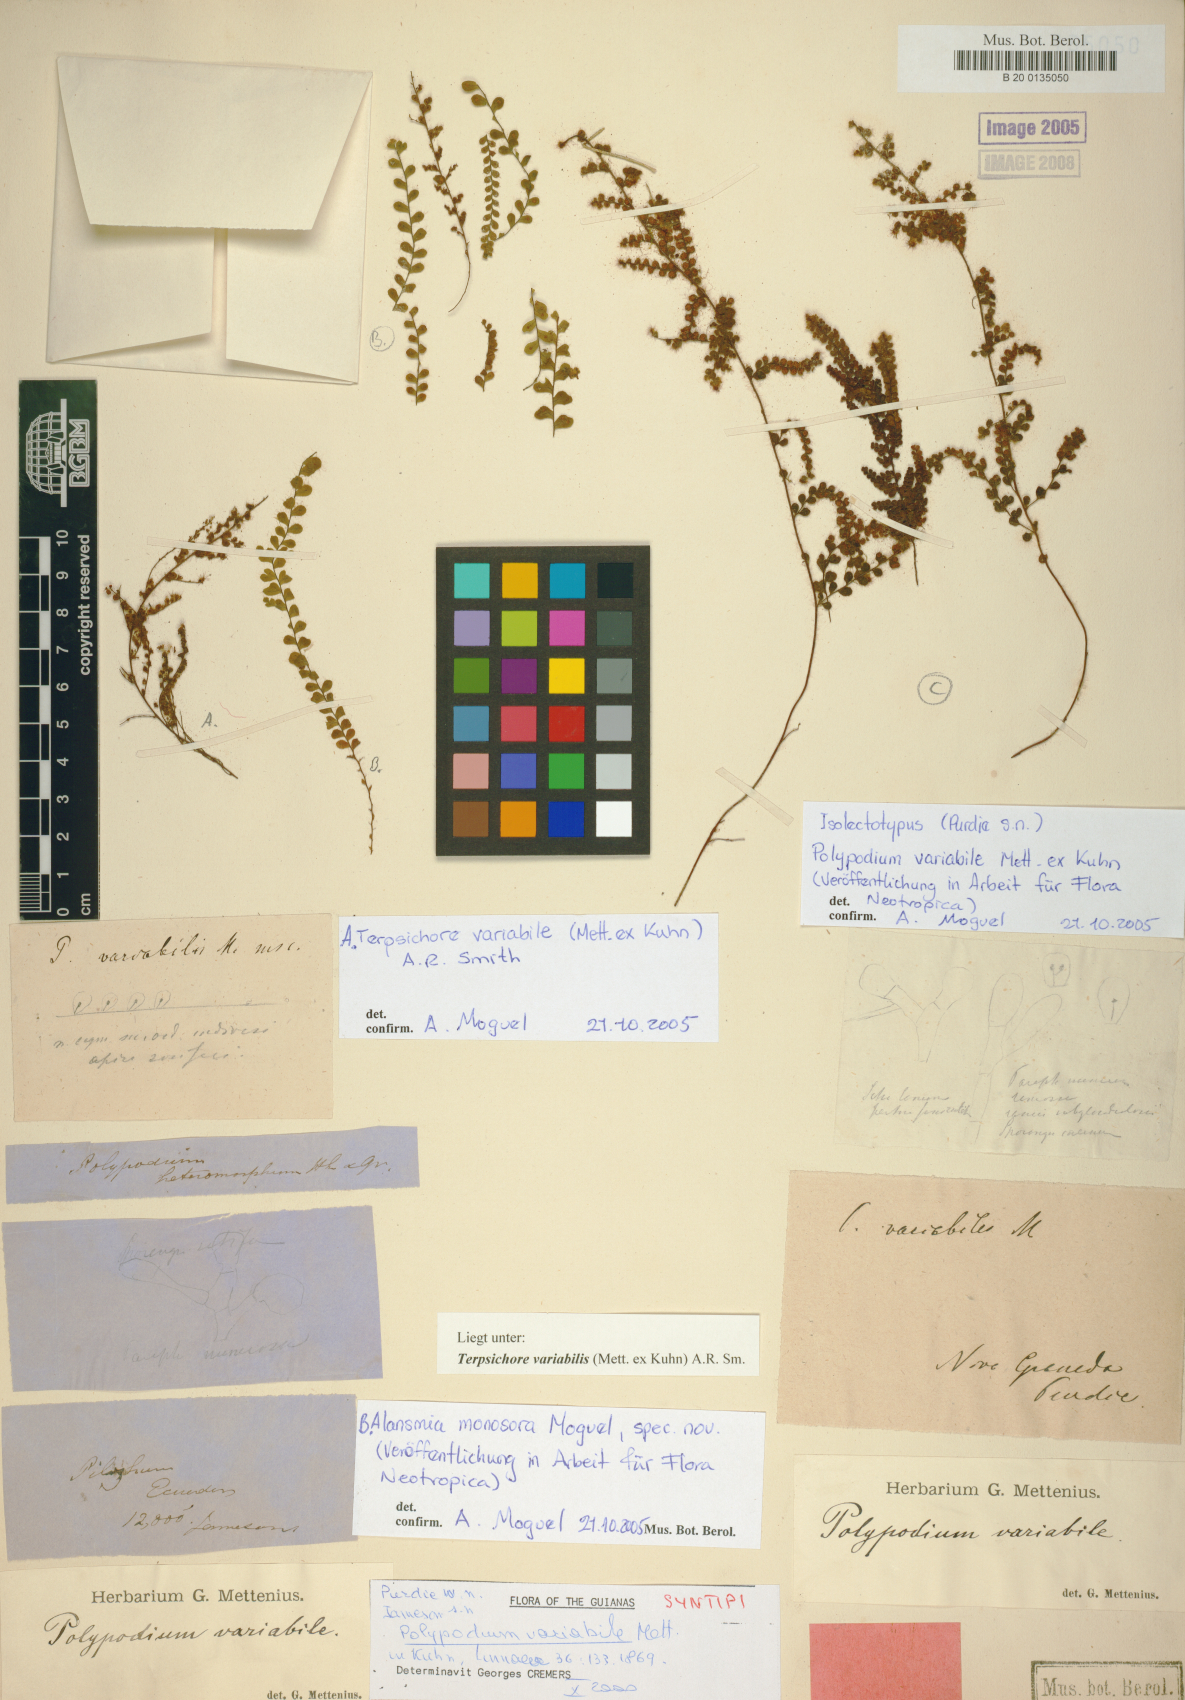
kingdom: Plantae
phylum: Tracheophyta
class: Polypodiopsida
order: Polypodiales
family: Polypodiaceae
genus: Alansmia
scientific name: Alansmia variabilis
